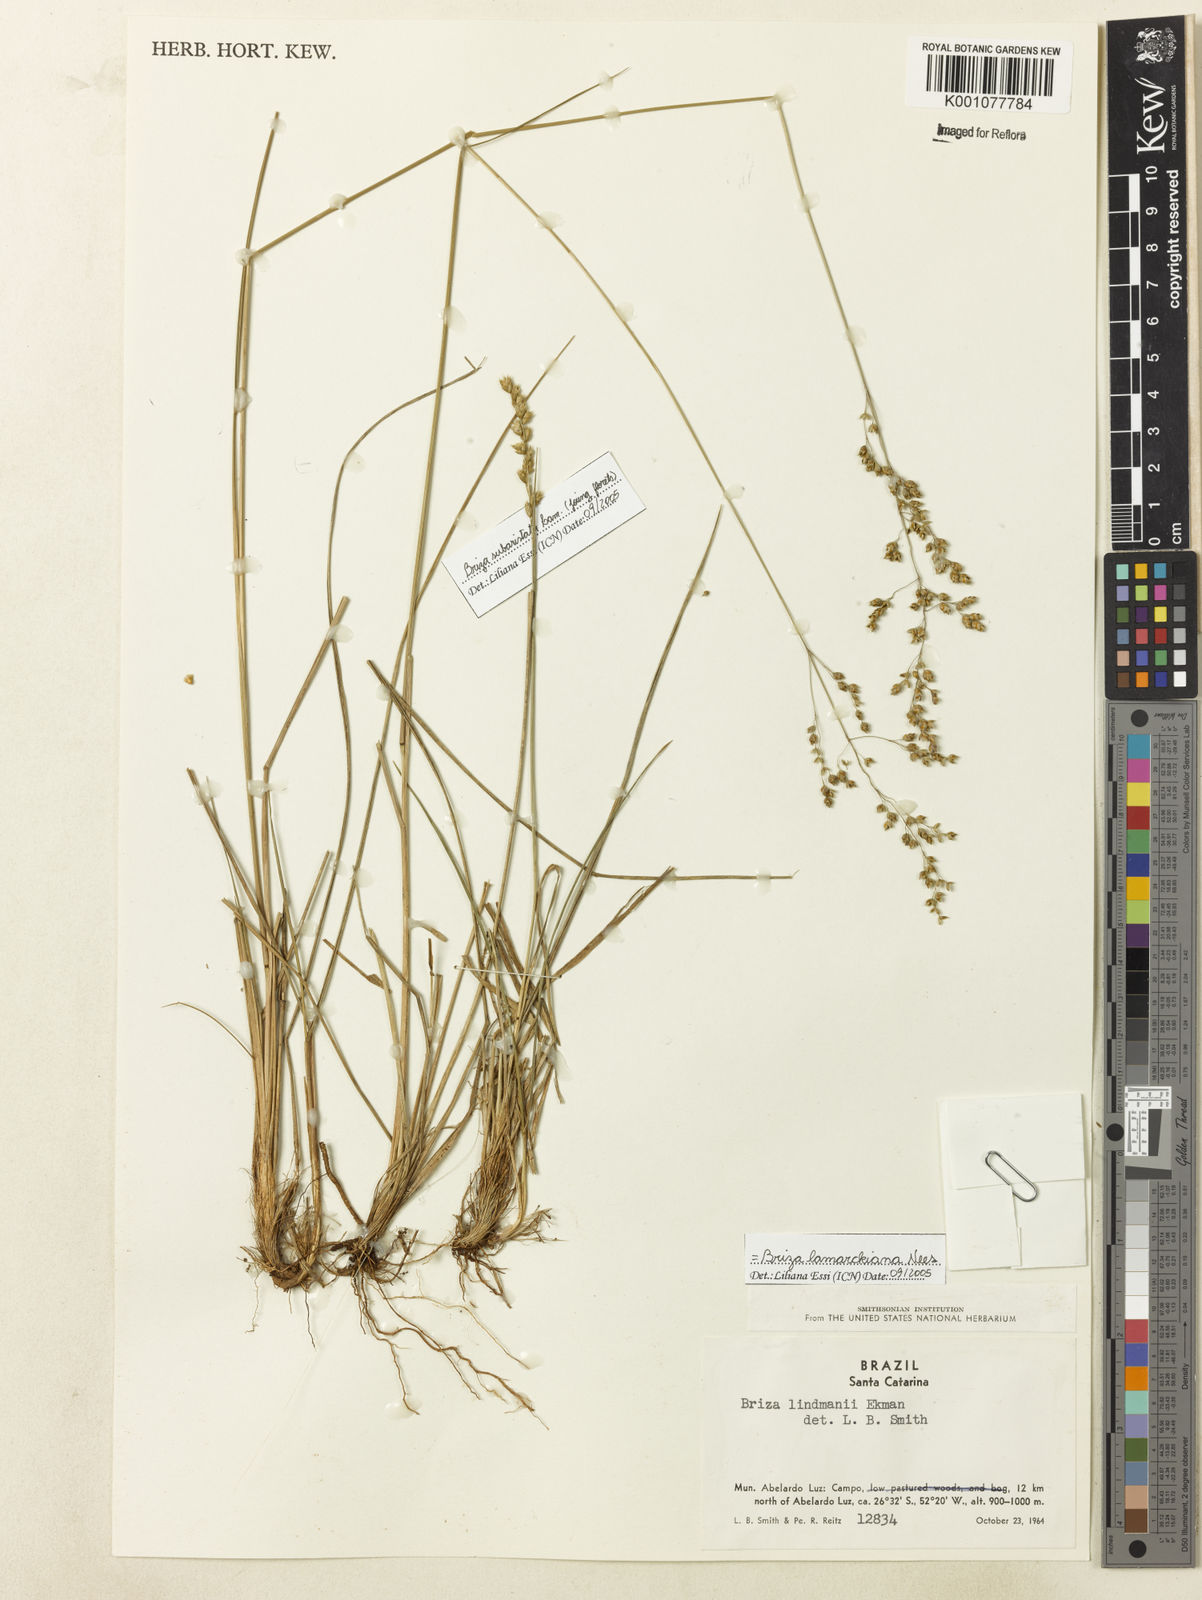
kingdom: Plantae
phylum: Tracheophyta
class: Liliopsida
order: Poales
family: Poaceae
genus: Chascolytrum
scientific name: Chascolytrum lamarckianum
